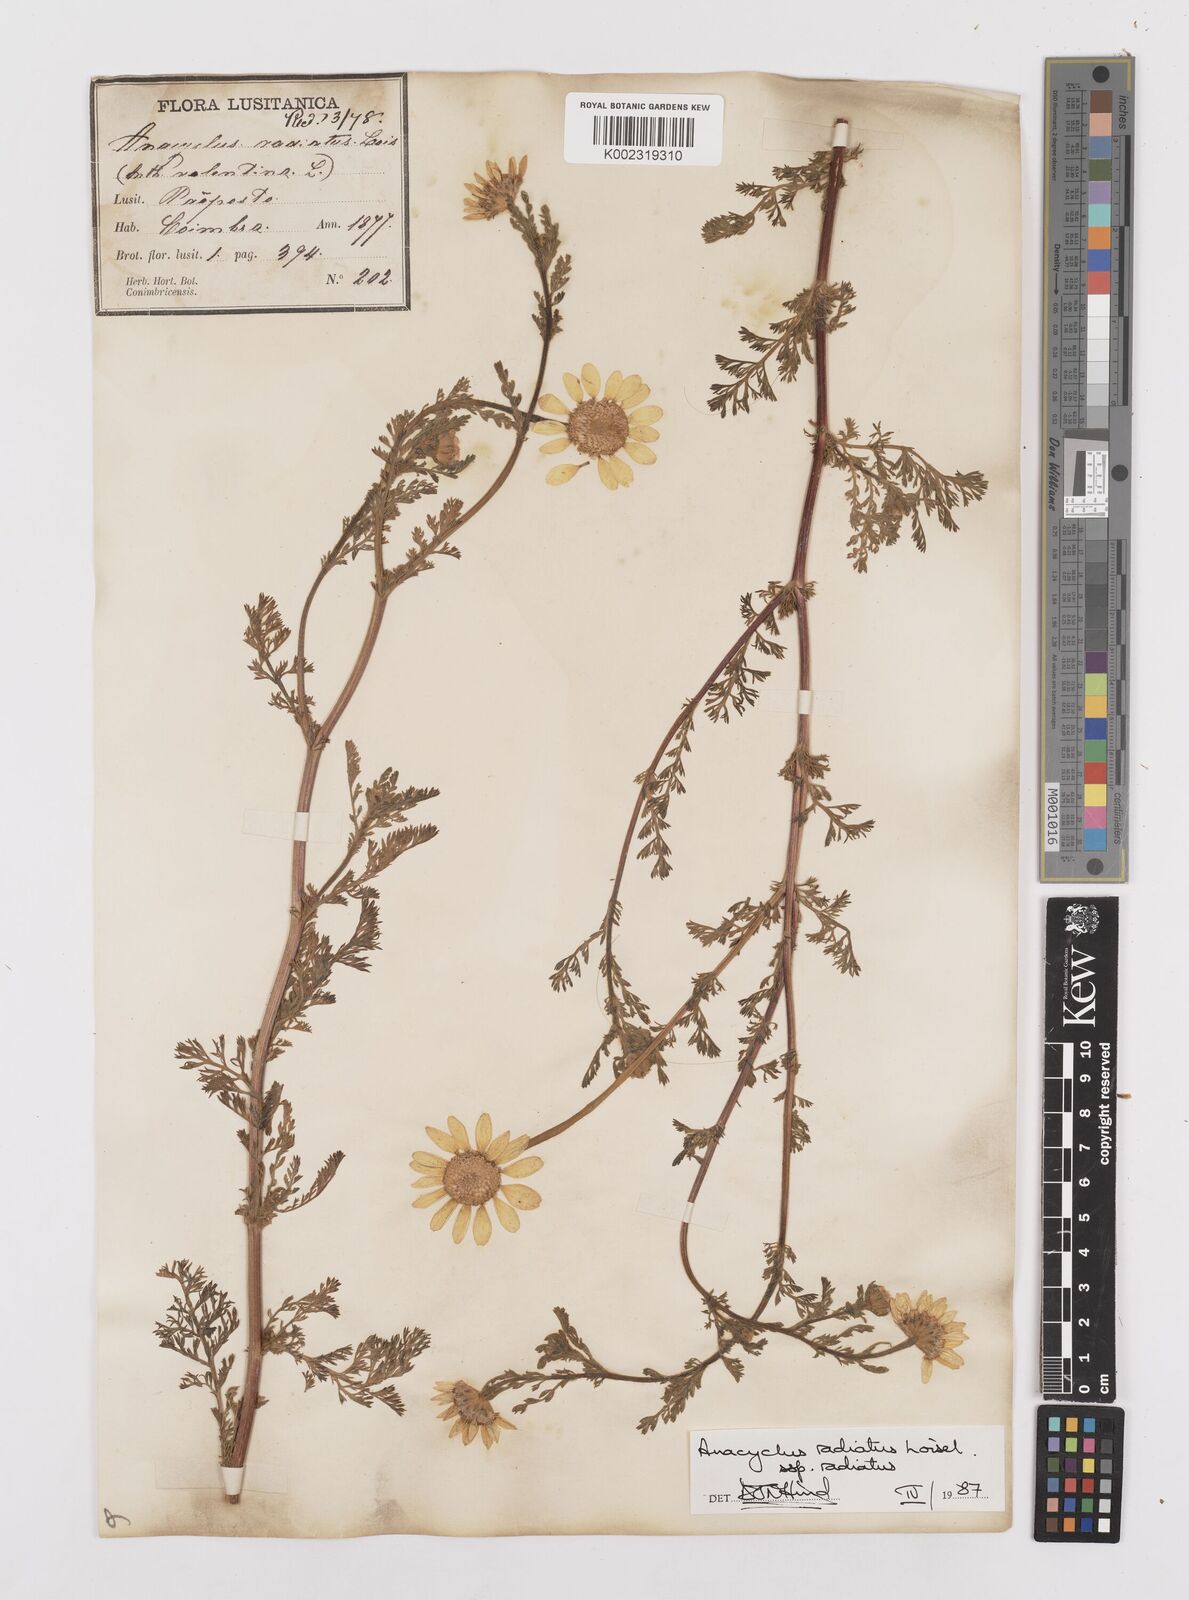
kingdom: Plantae
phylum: Tracheophyta
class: Magnoliopsida
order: Asterales
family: Asteraceae
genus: Anacyclus
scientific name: Anacyclus radiatus
